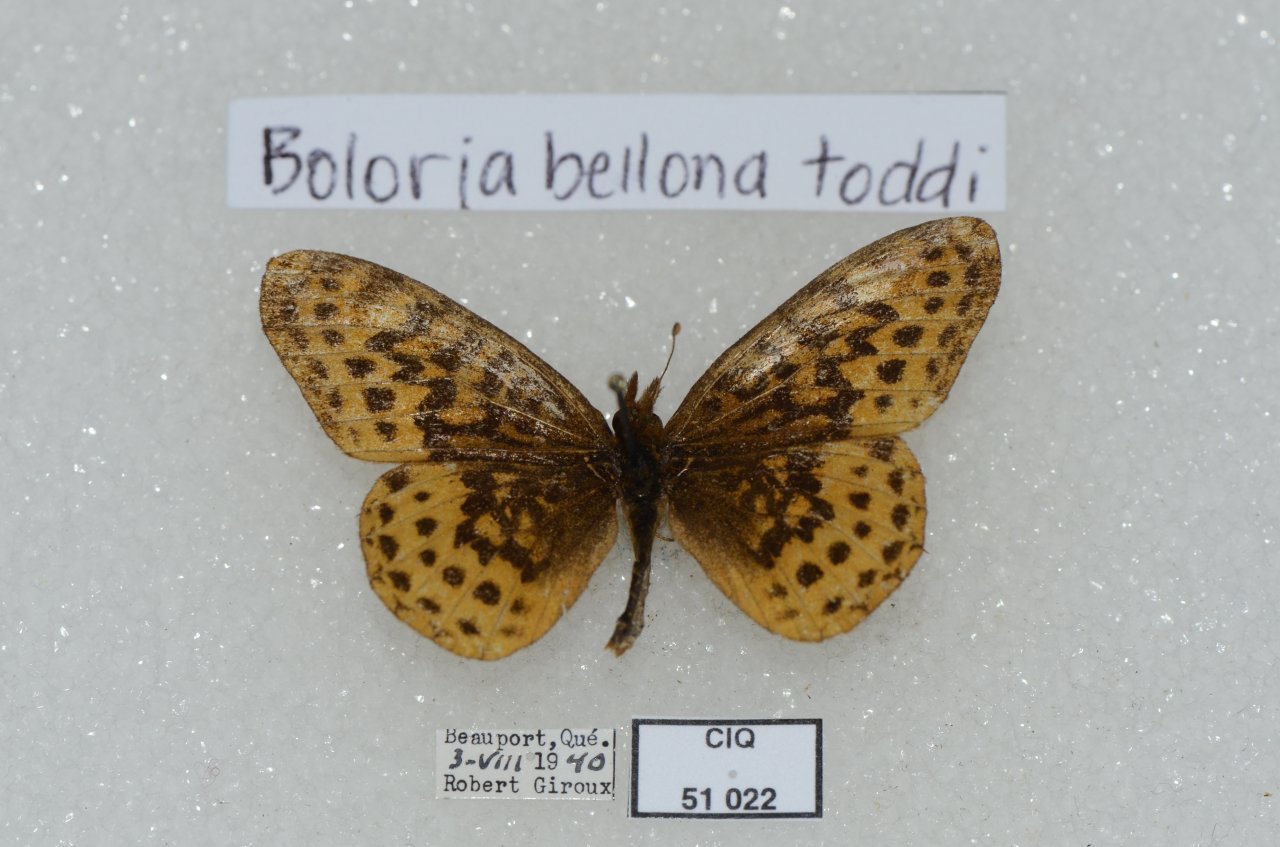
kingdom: Animalia
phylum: Arthropoda
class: Insecta
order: Lepidoptera
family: Nymphalidae
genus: Clossiana
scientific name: Clossiana toddi
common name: Meadow Fritillary
